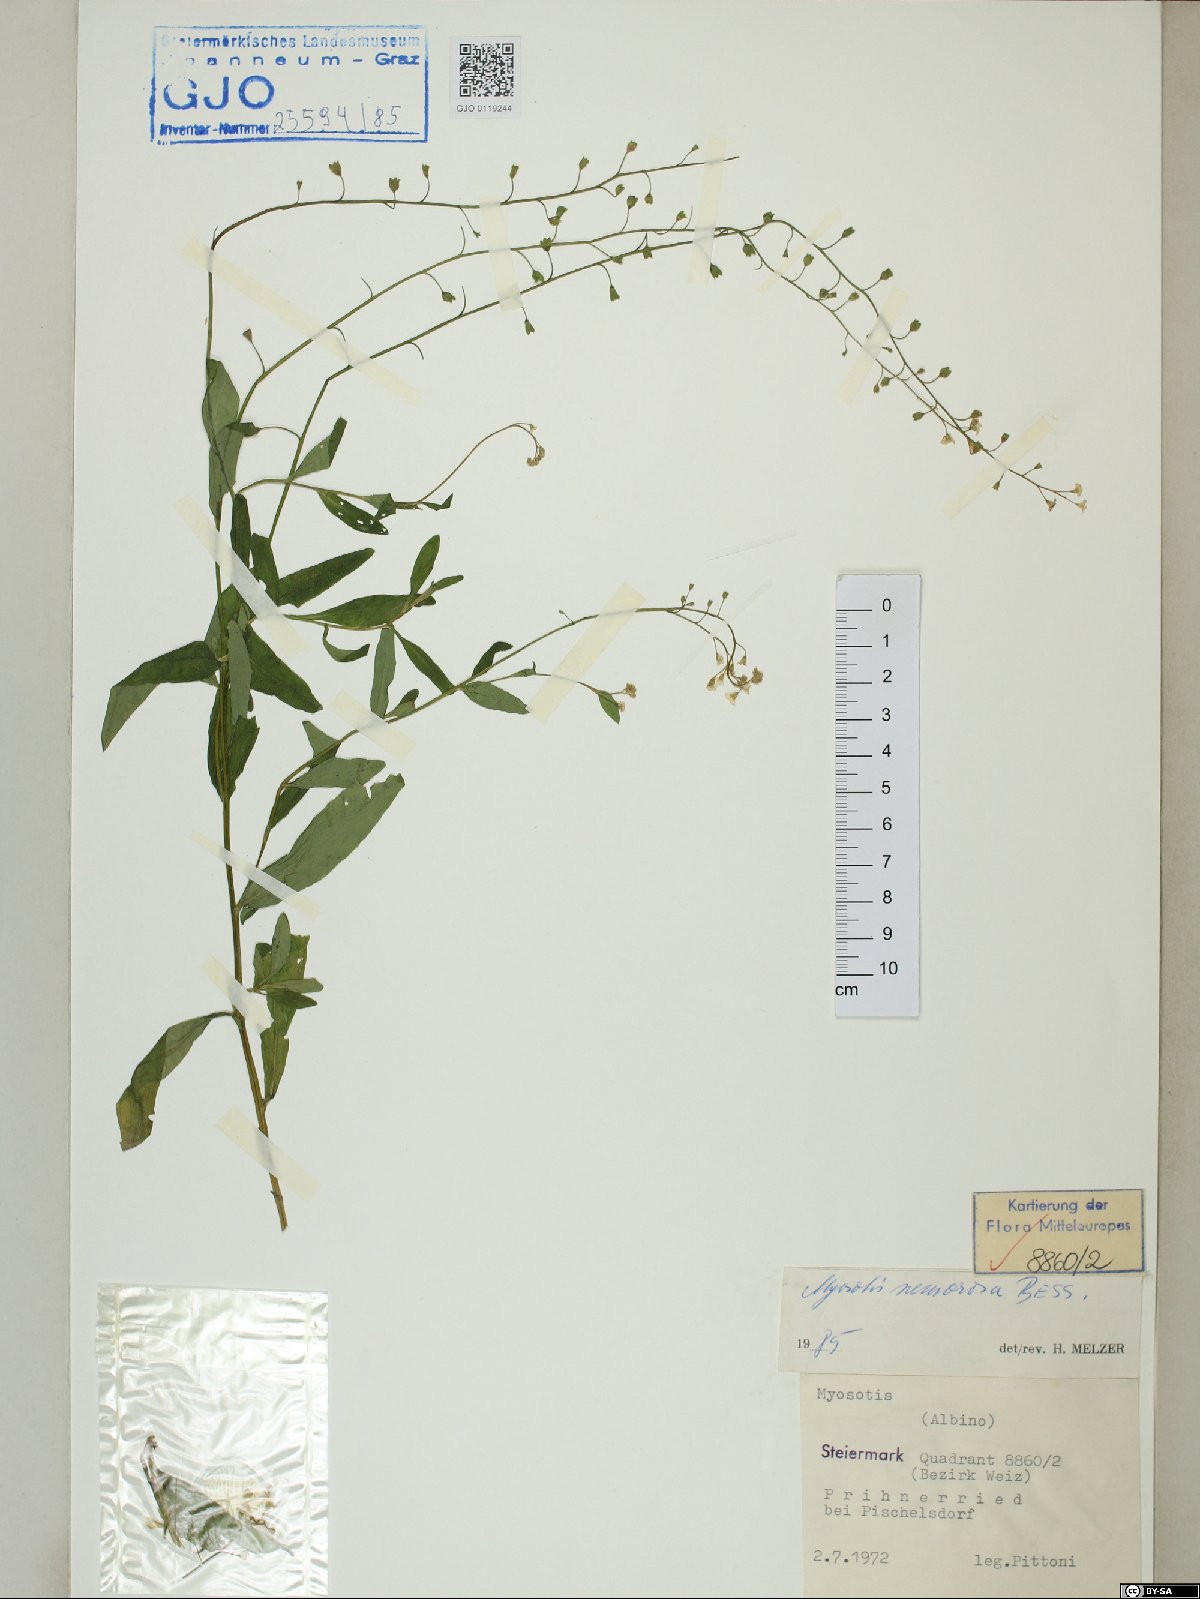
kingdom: Plantae
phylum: Tracheophyta
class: Magnoliopsida
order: Boraginales
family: Boraginaceae
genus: Myosotis
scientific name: Myosotis nemorosa
